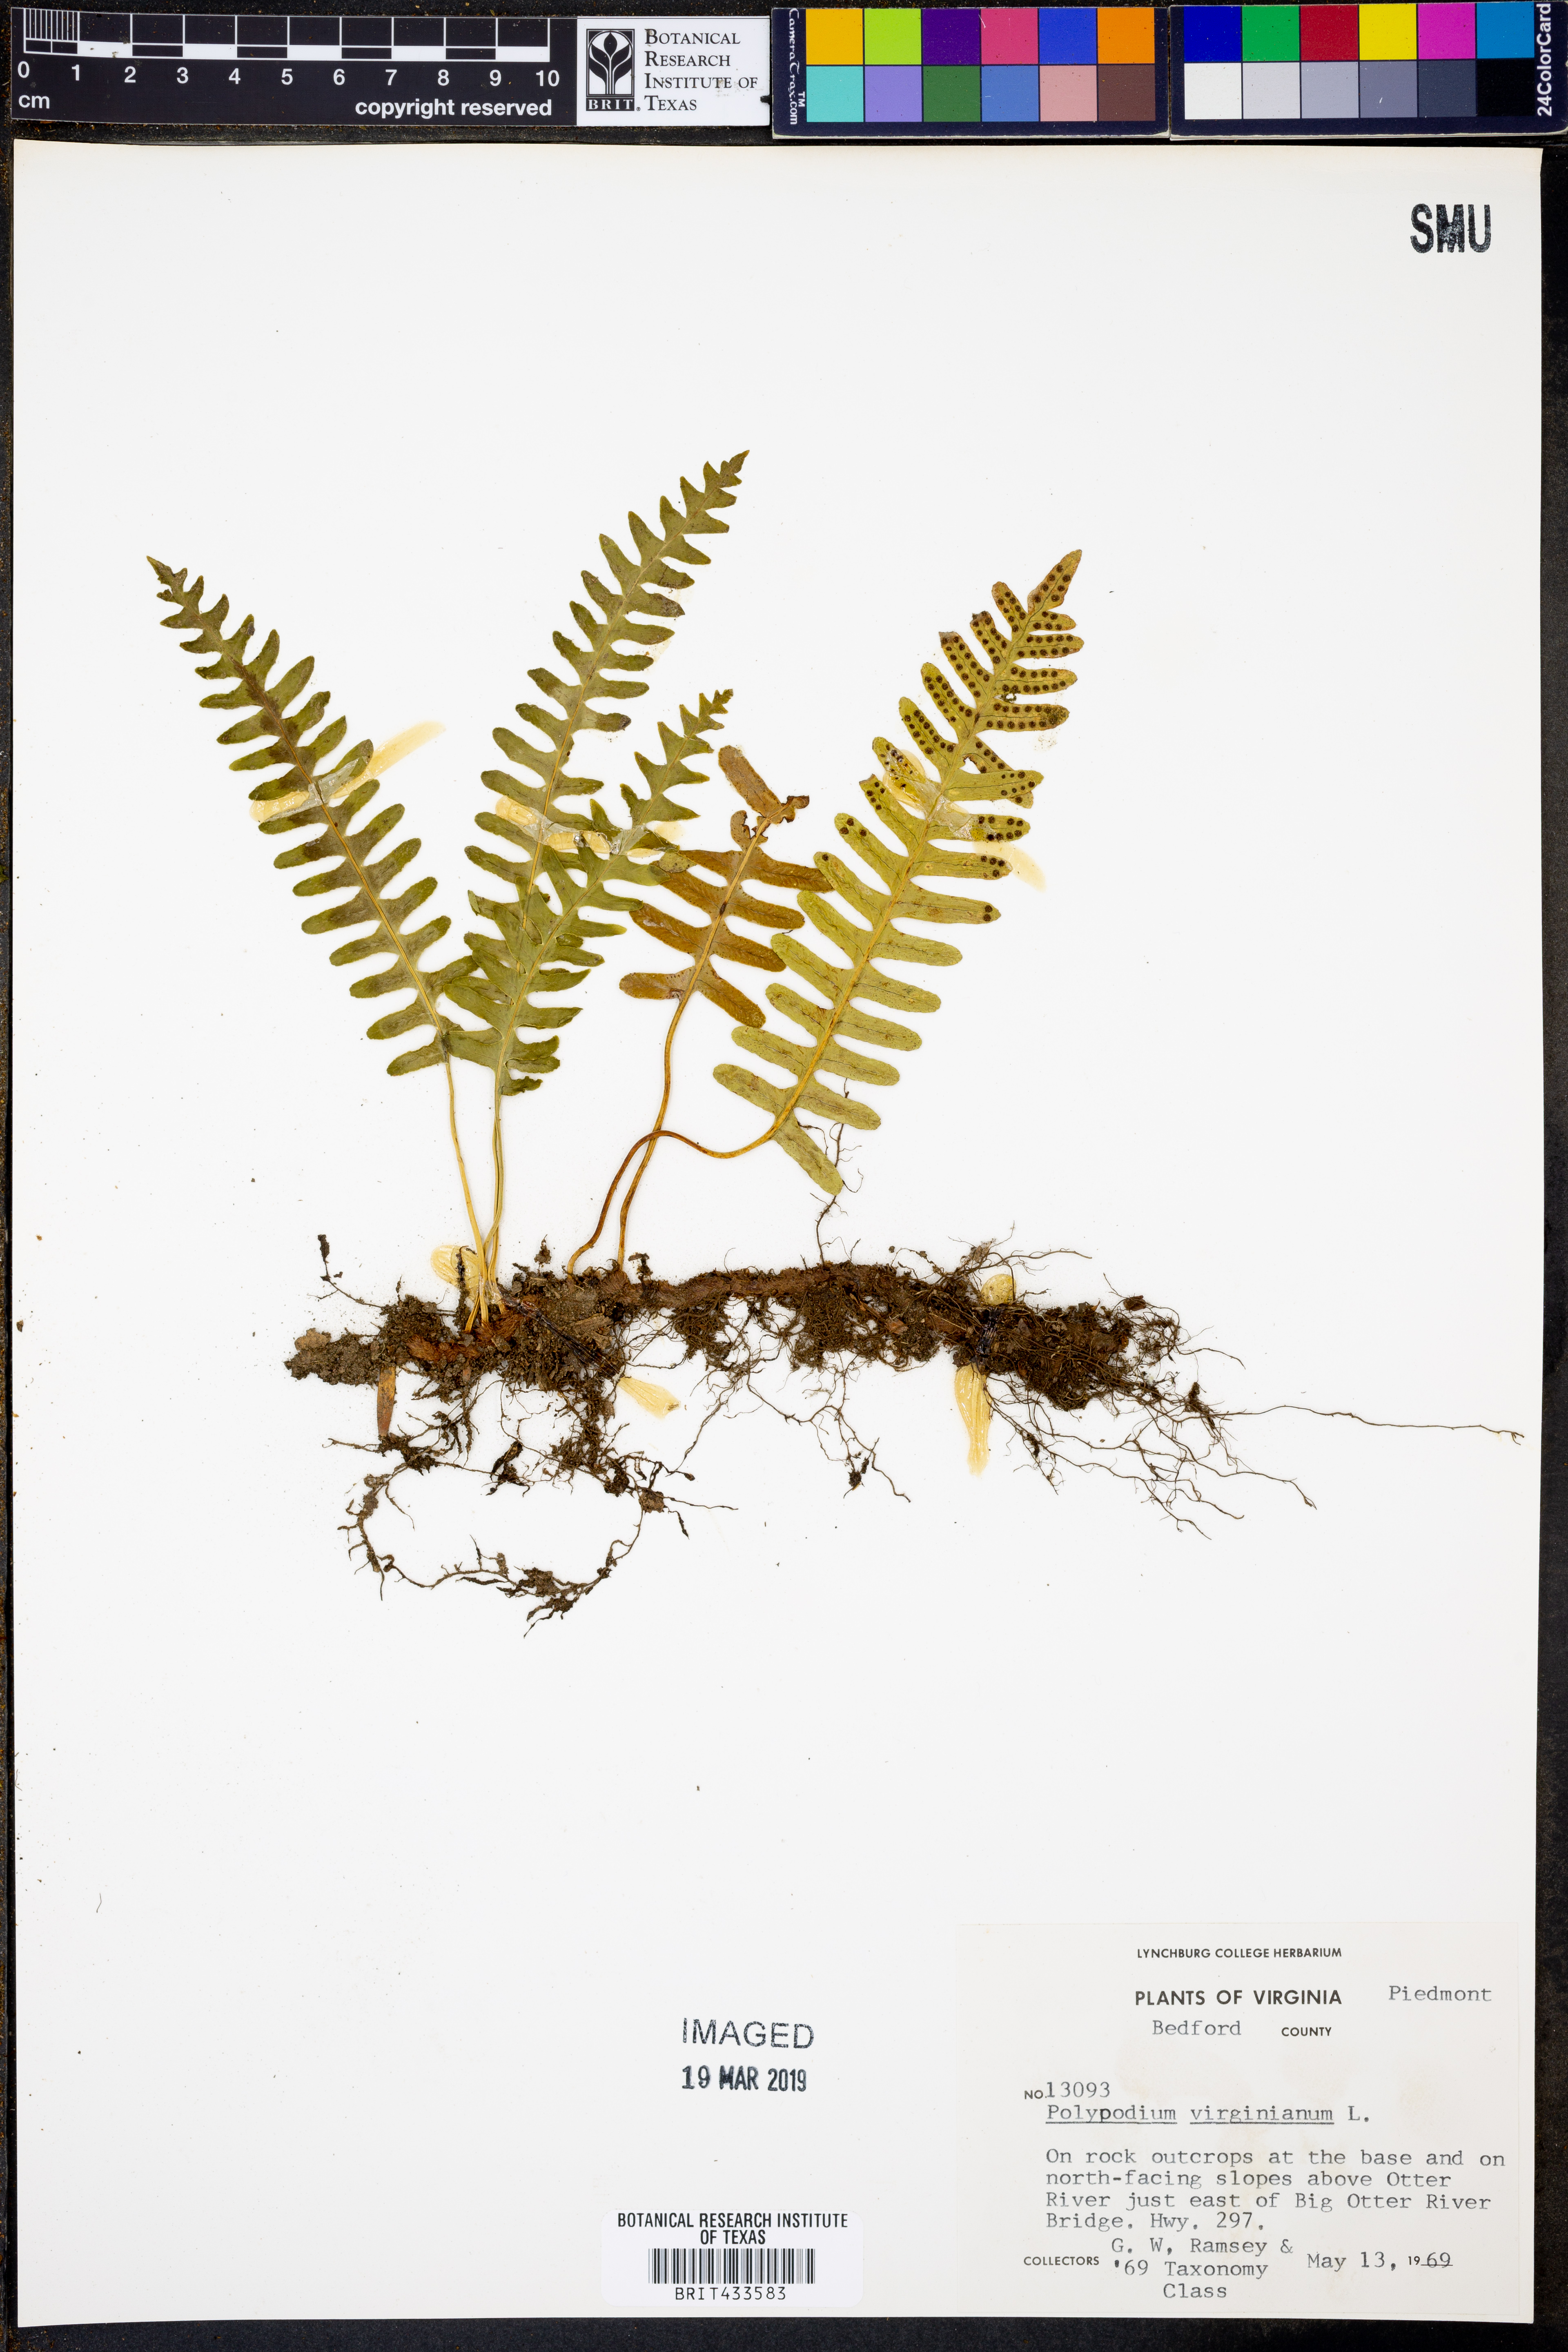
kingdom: Plantae
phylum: Tracheophyta
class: Polypodiopsida
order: Polypodiales
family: Polypodiaceae
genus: Polypodium
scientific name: Polypodium virginianum
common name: American wall fern
